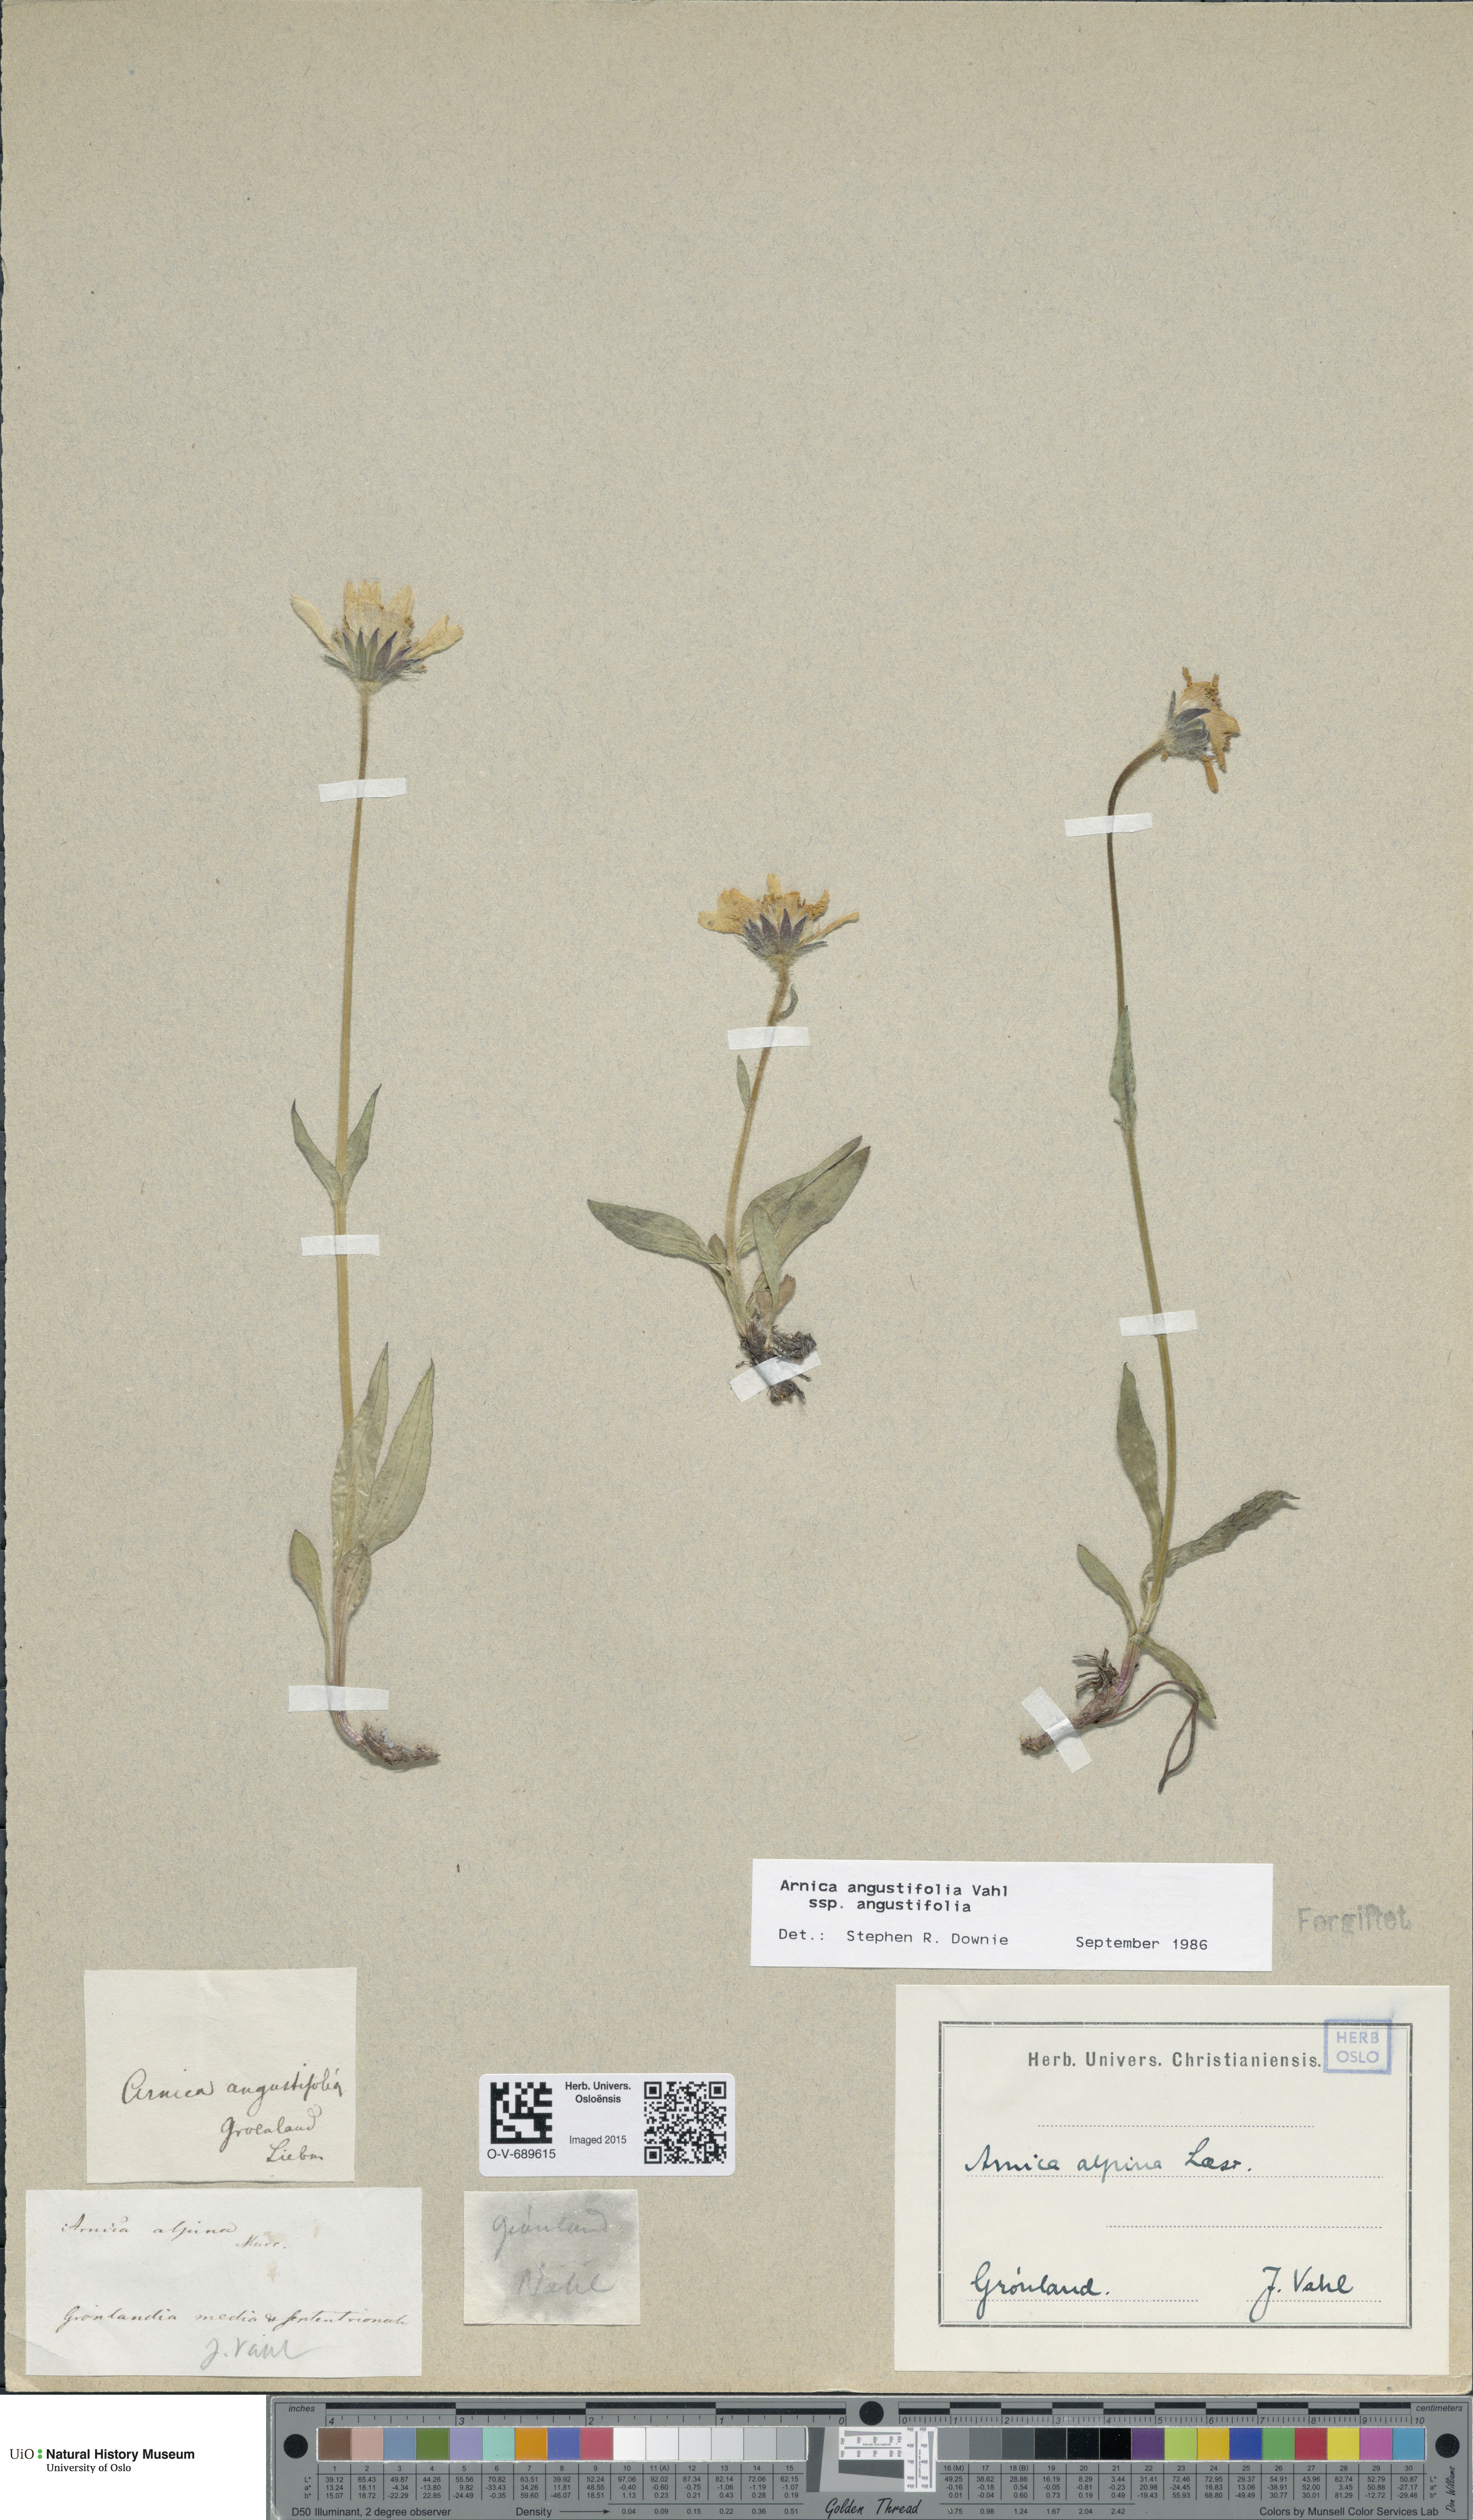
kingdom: Plantae
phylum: Tracheophyta
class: Magnoliopsida
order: Asterales
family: Asteraceae
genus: Arnica
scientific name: Arnica angustifolia
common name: Arctic arnica
